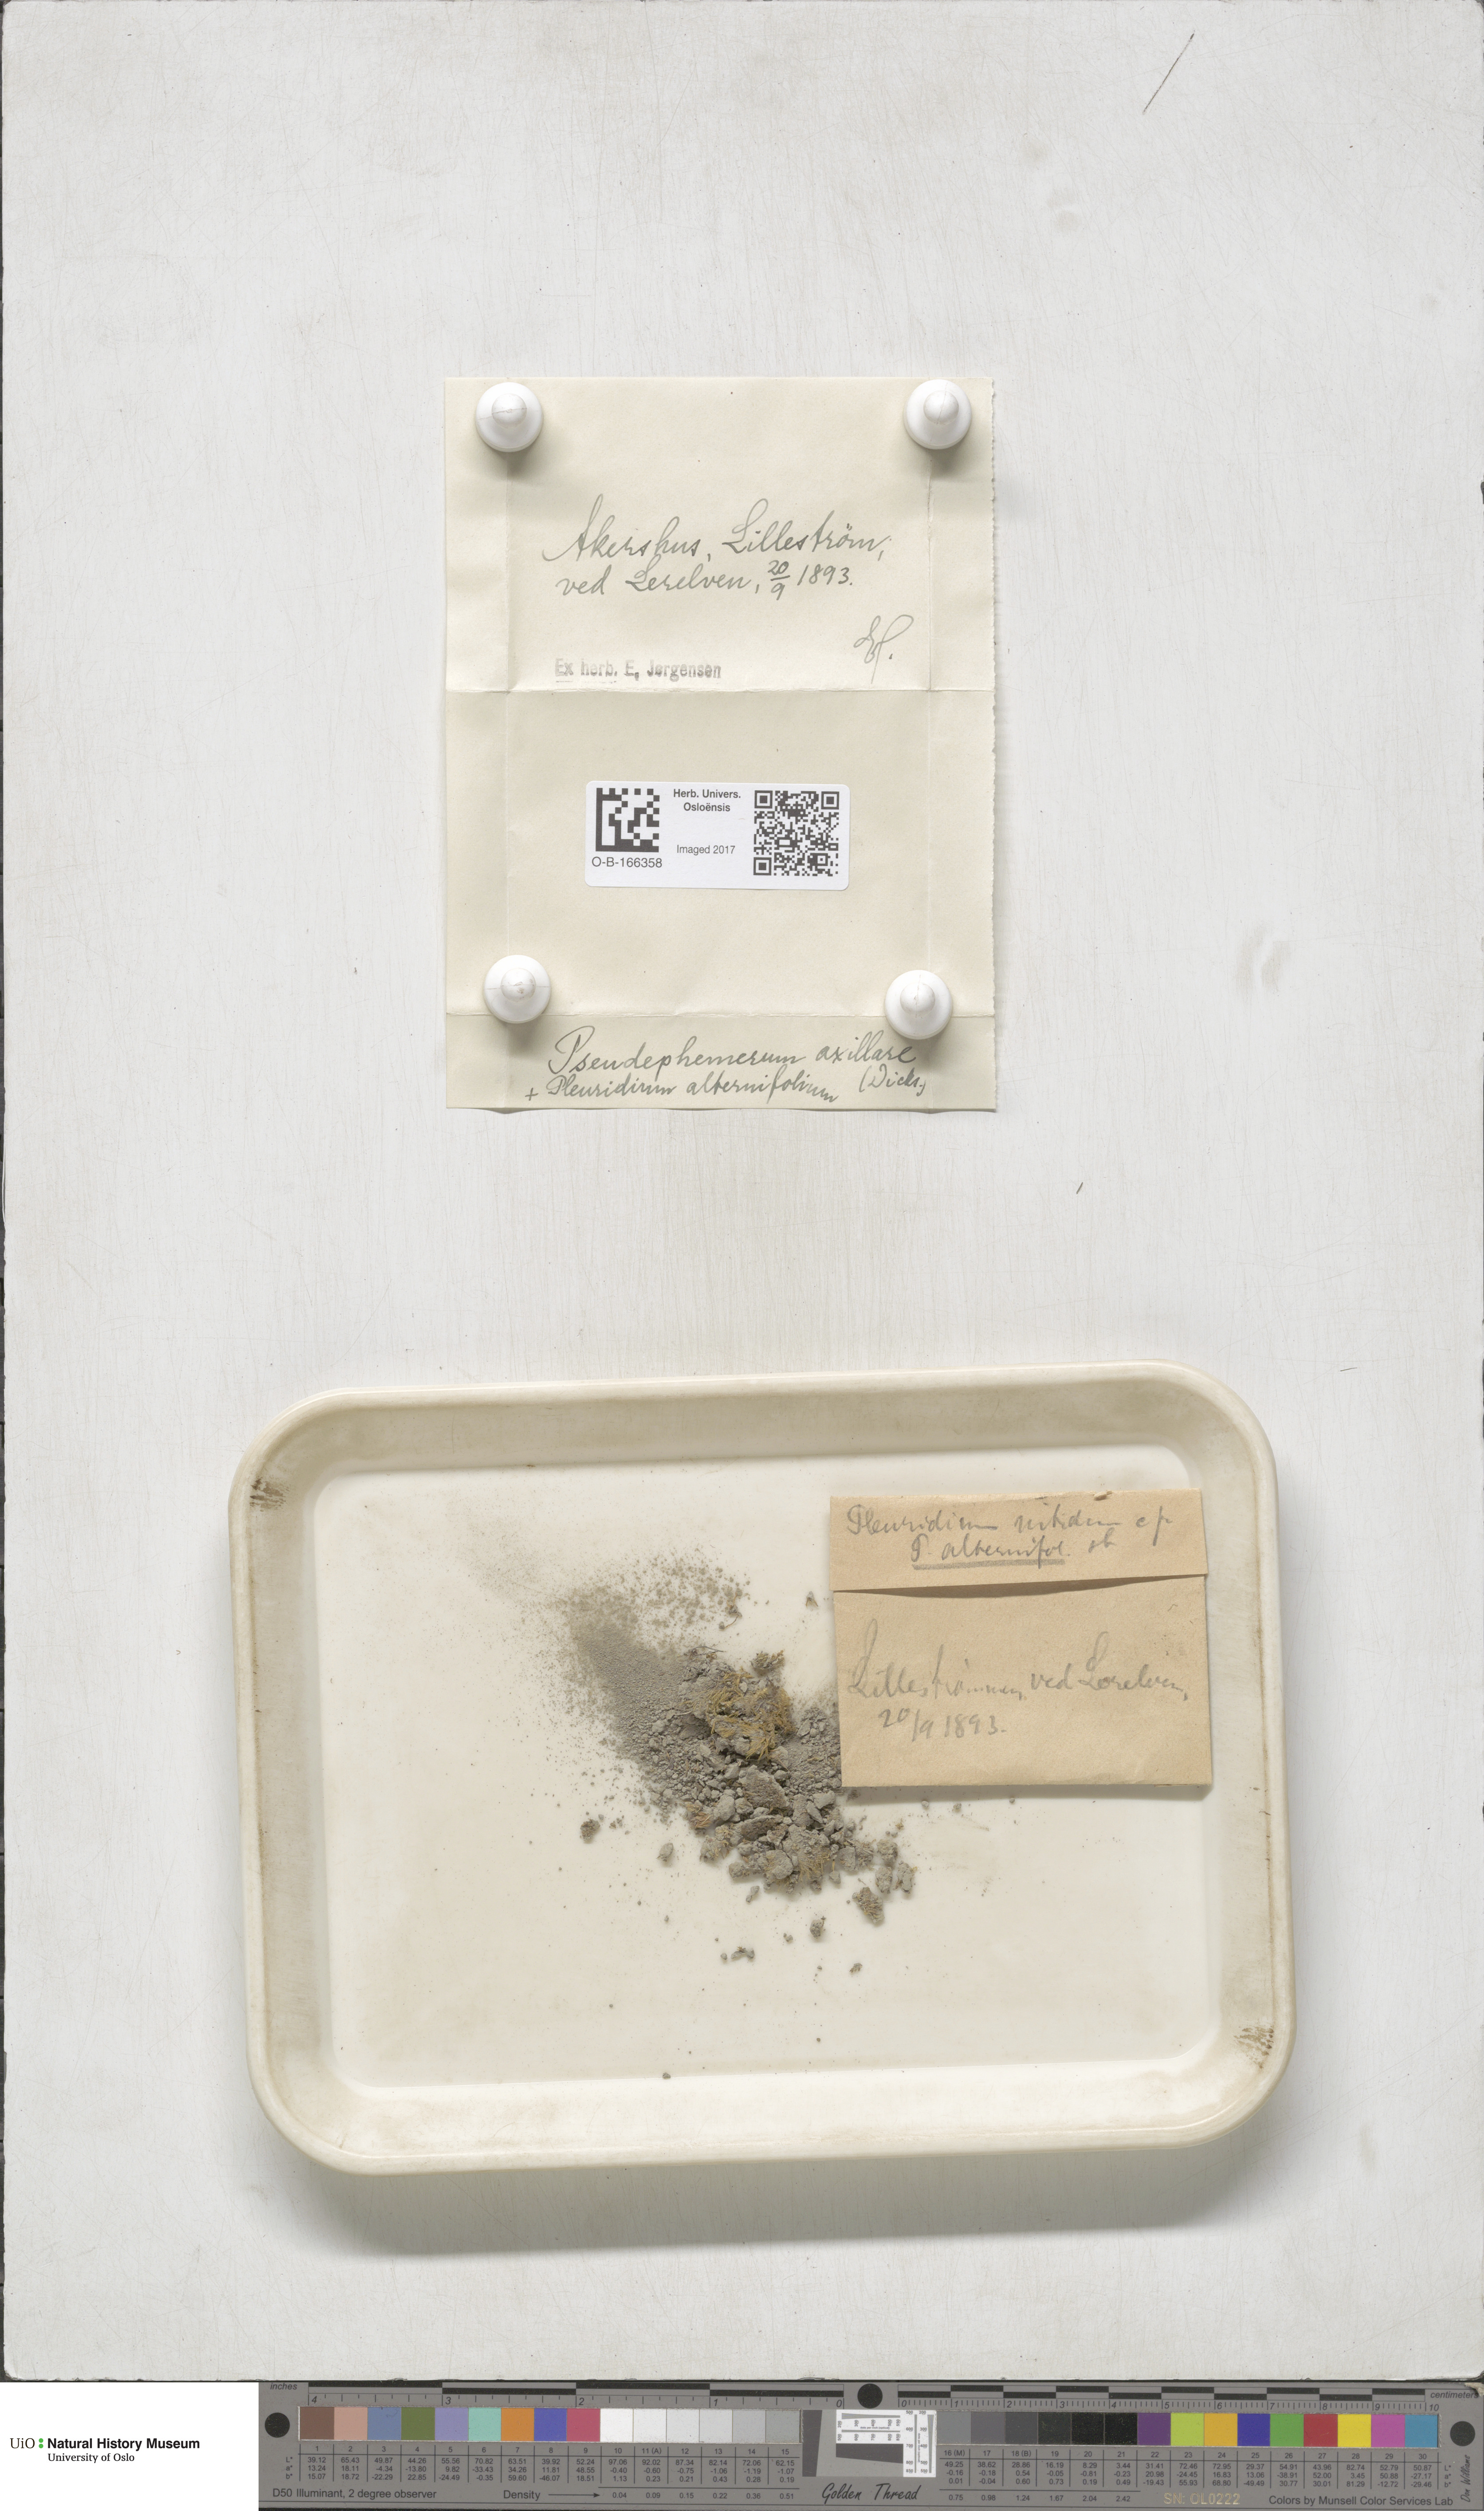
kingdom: Plantae
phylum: Bryophyta
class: Bryopsida
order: Dicranales
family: Ditrichaceae
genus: Pseudephemerum
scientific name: Pseudephemerum nitidum
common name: Delicate earth-moss
